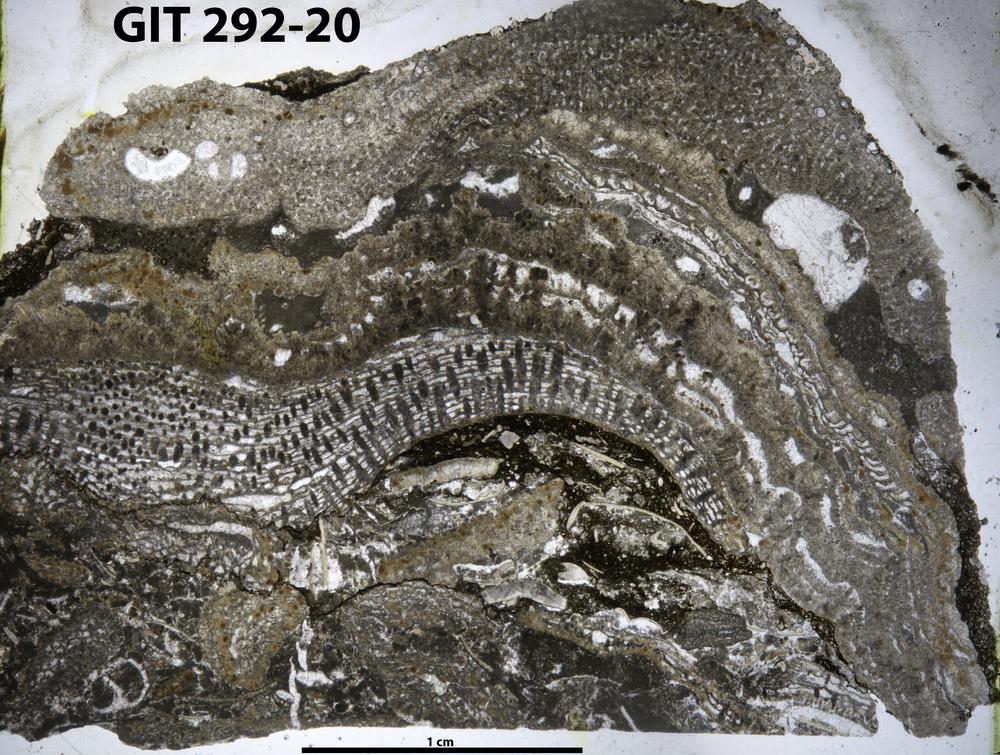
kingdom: Animalia
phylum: Porifera
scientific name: Porifera
